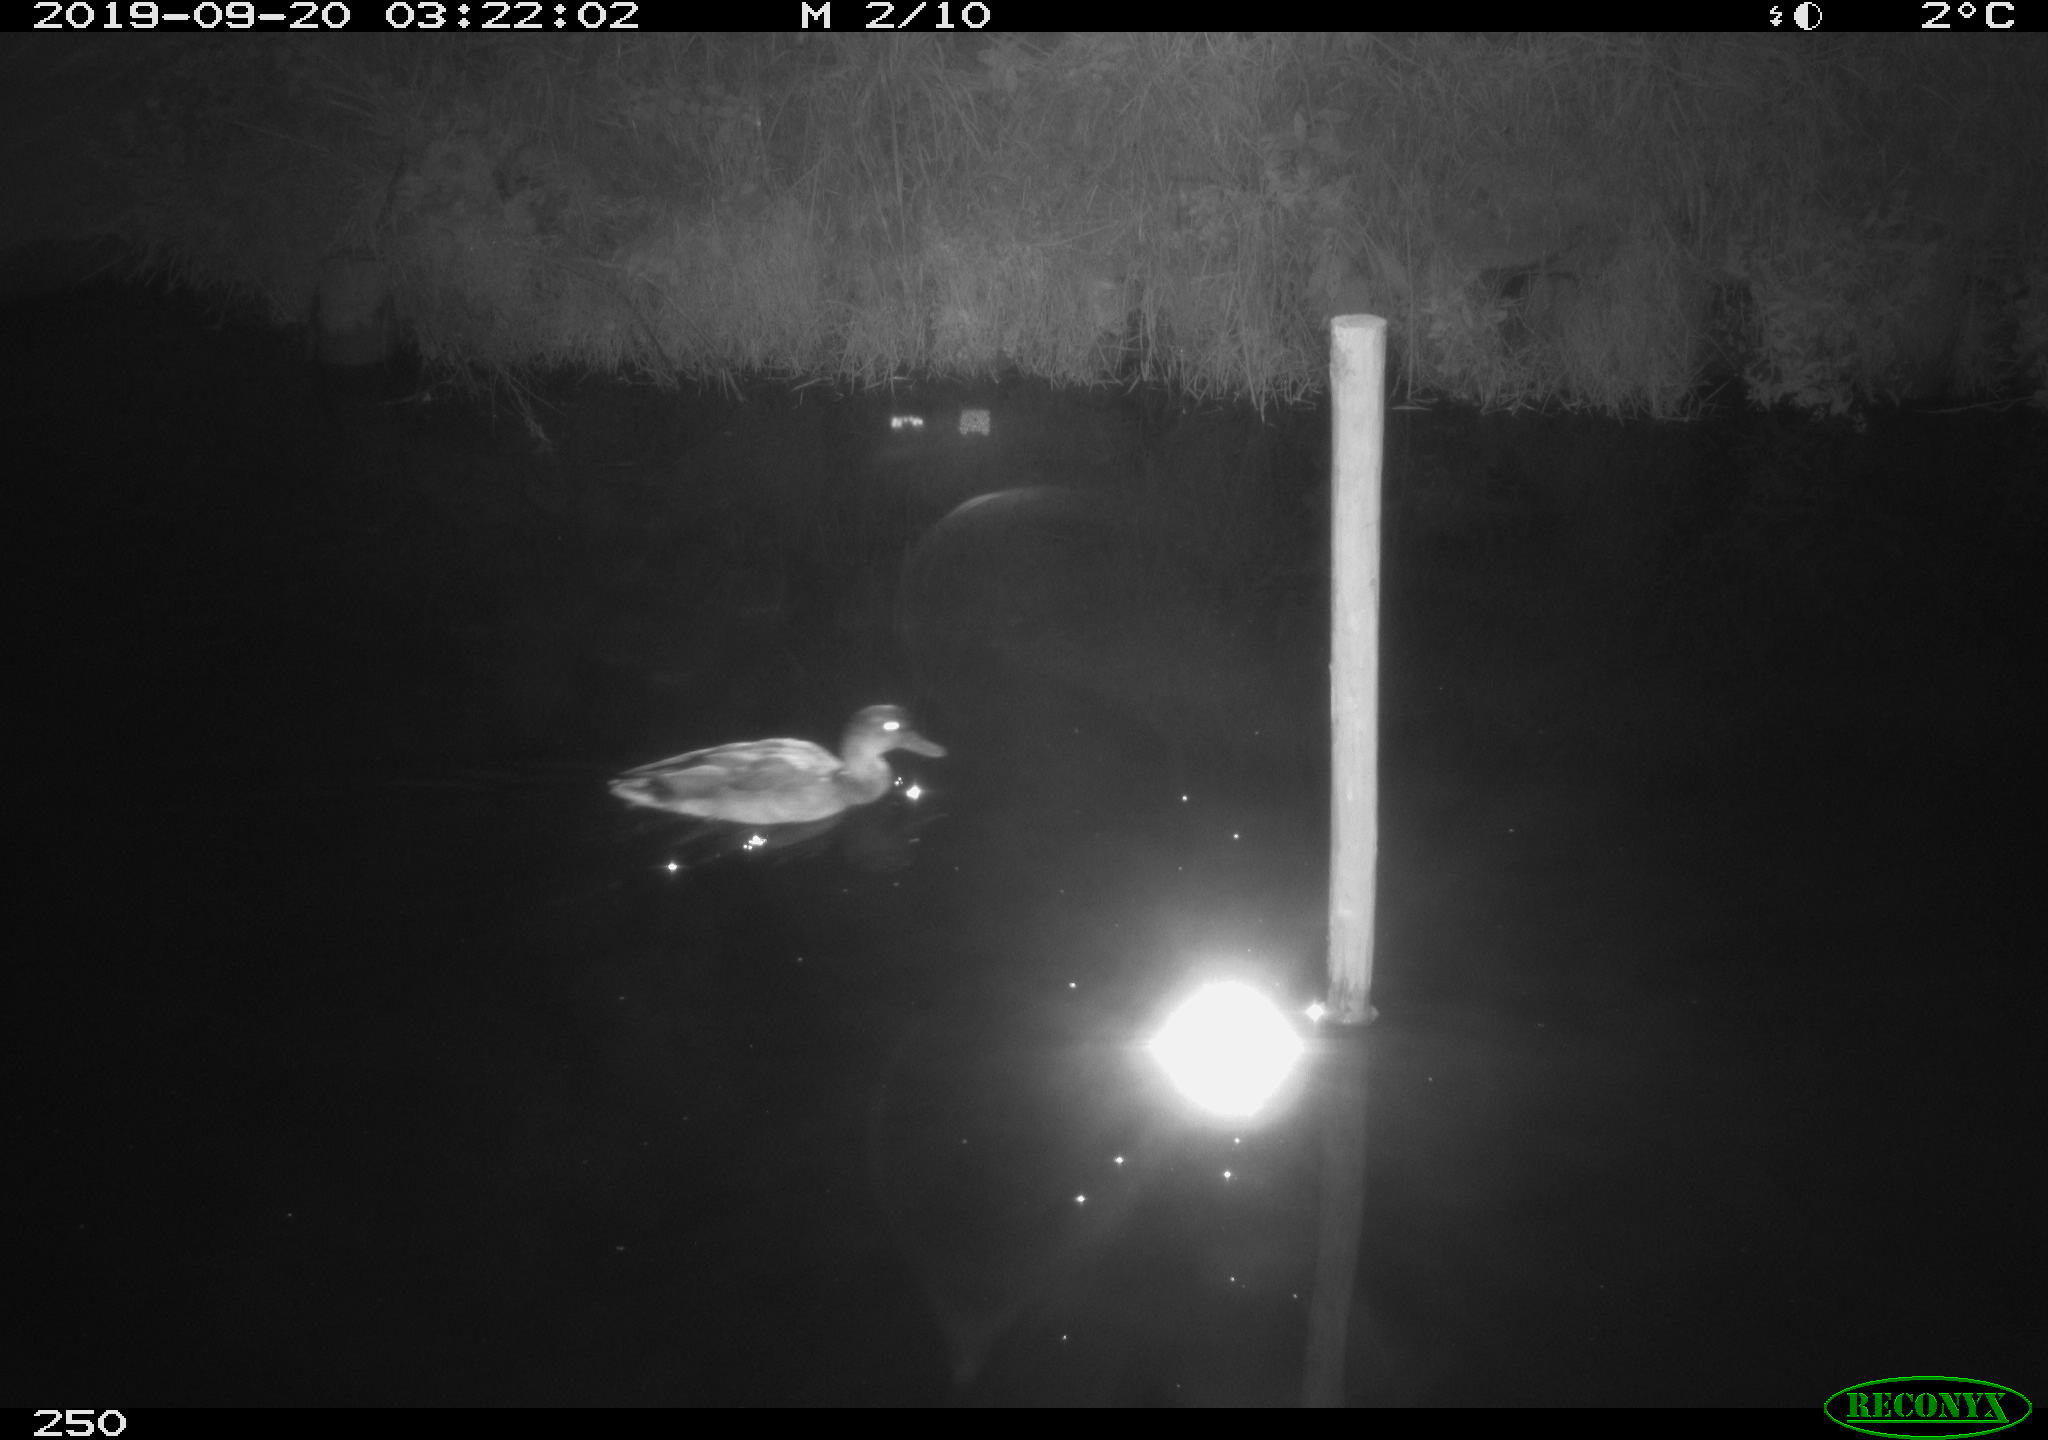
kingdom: Animalia
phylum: Chordata
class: Aves
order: Anseriformes
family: Anatidae
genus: Anas
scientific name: Anas platyrhynchos
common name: Mallard
